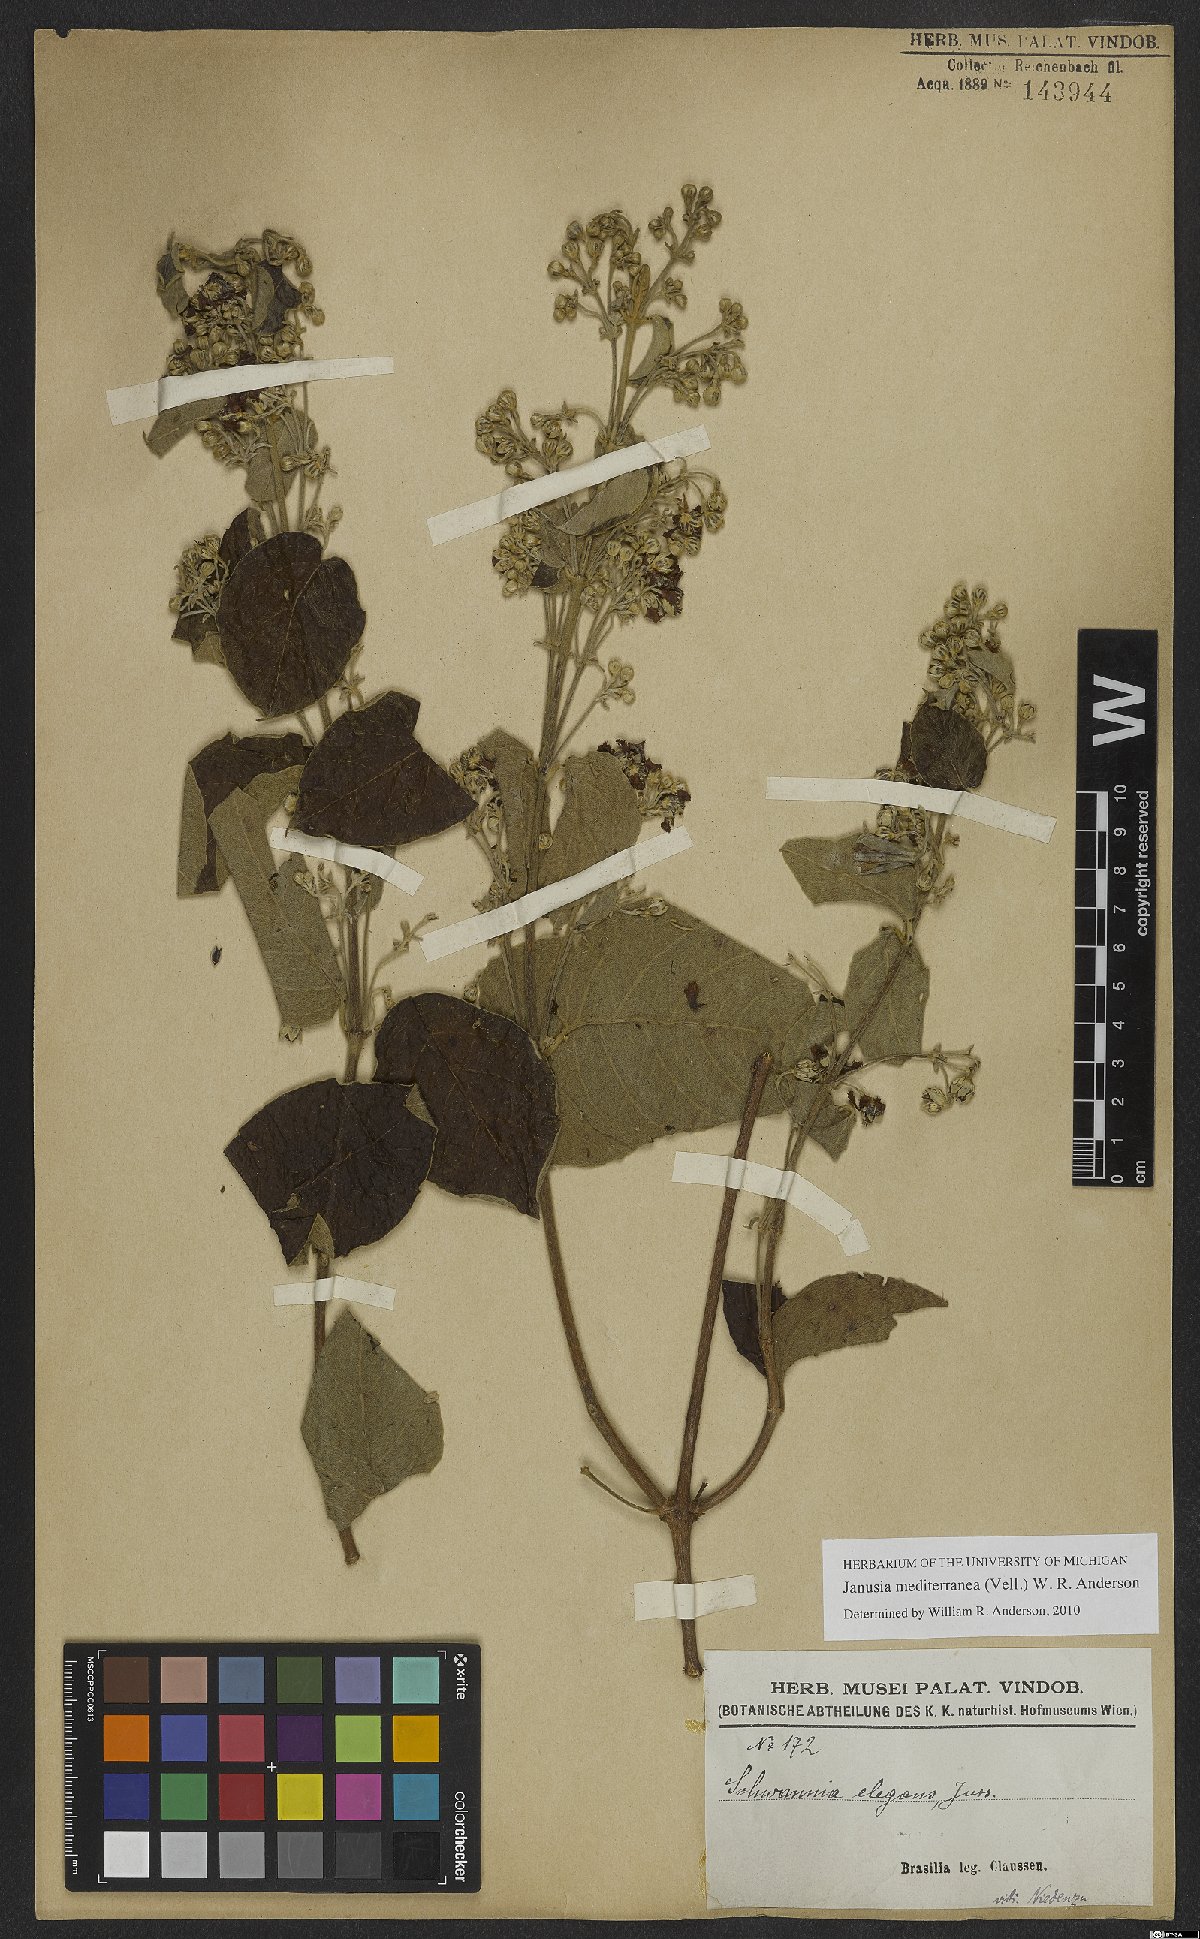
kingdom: Plantae
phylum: Tracheophyta
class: Magnoliopsida
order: Malpighiales
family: Malpighiaceae
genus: Janusia
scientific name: Janusia mediterranea
